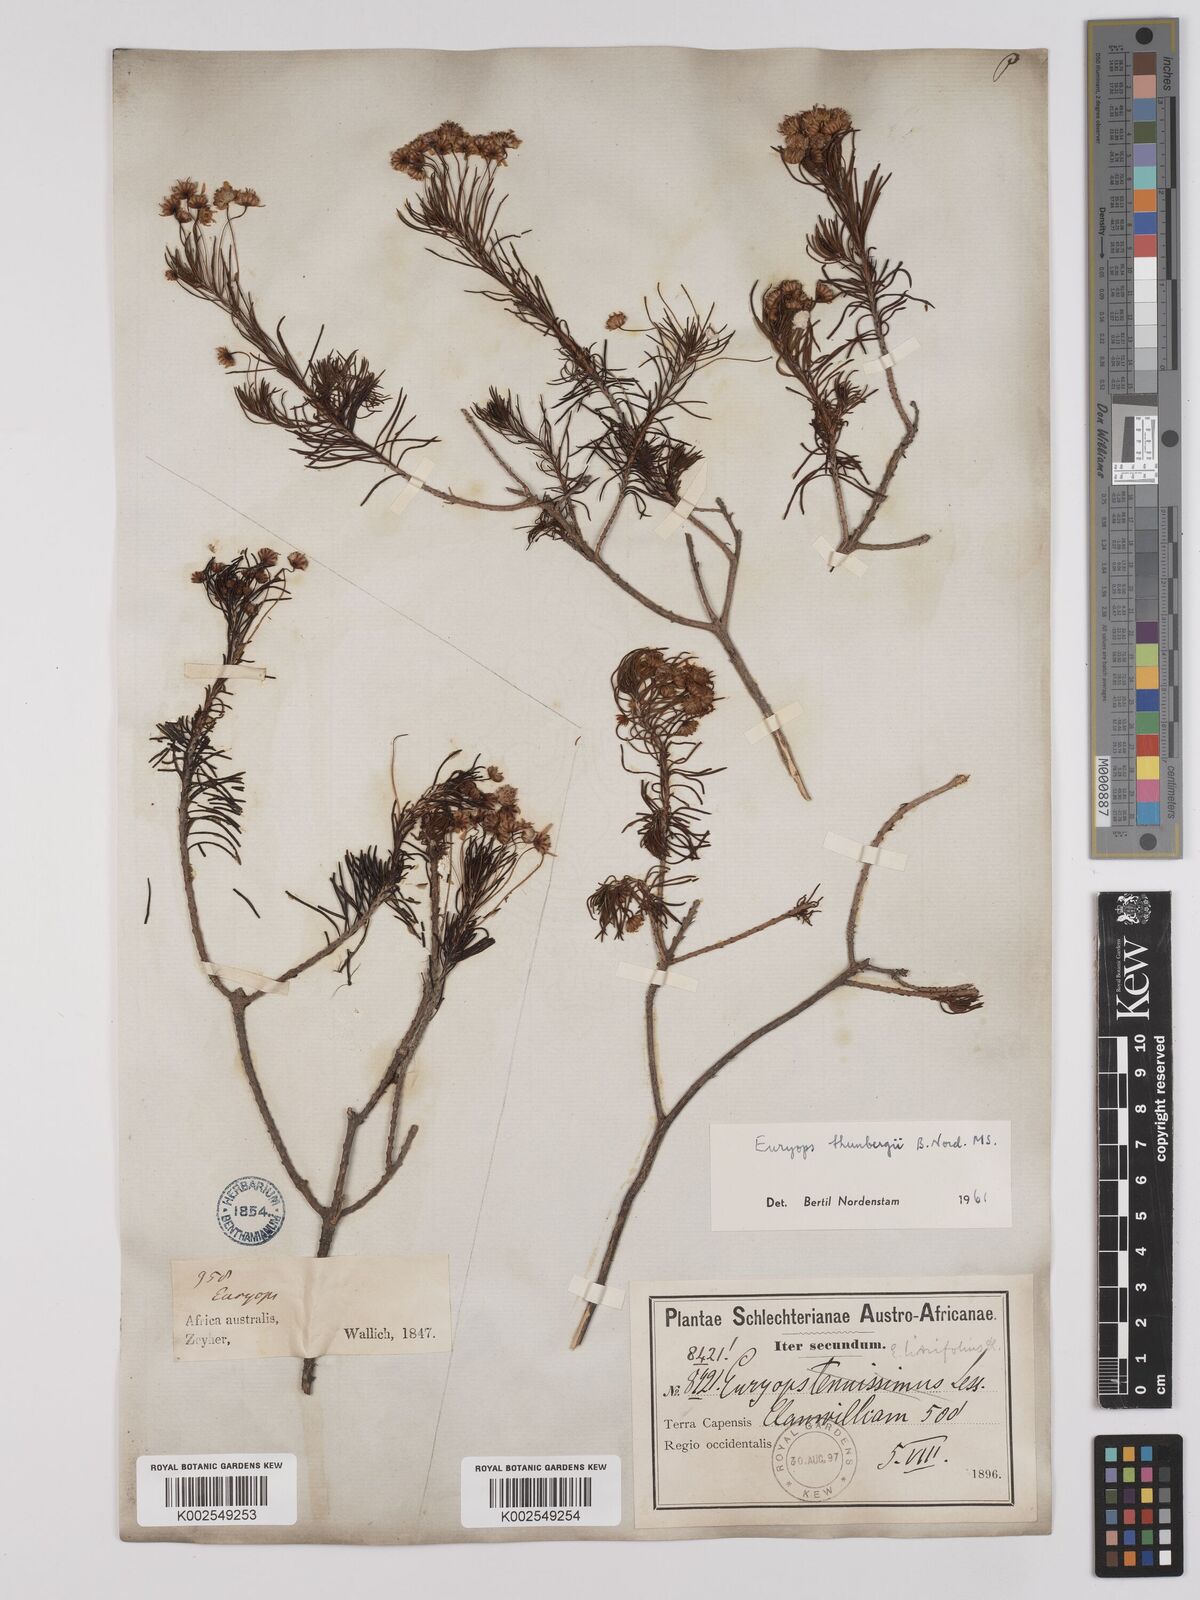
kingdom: Plantae
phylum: Tracheophyta
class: Magnoliopsida
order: Asterales
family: Asteraceae
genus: Euryops
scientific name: Euryops thunbergii
